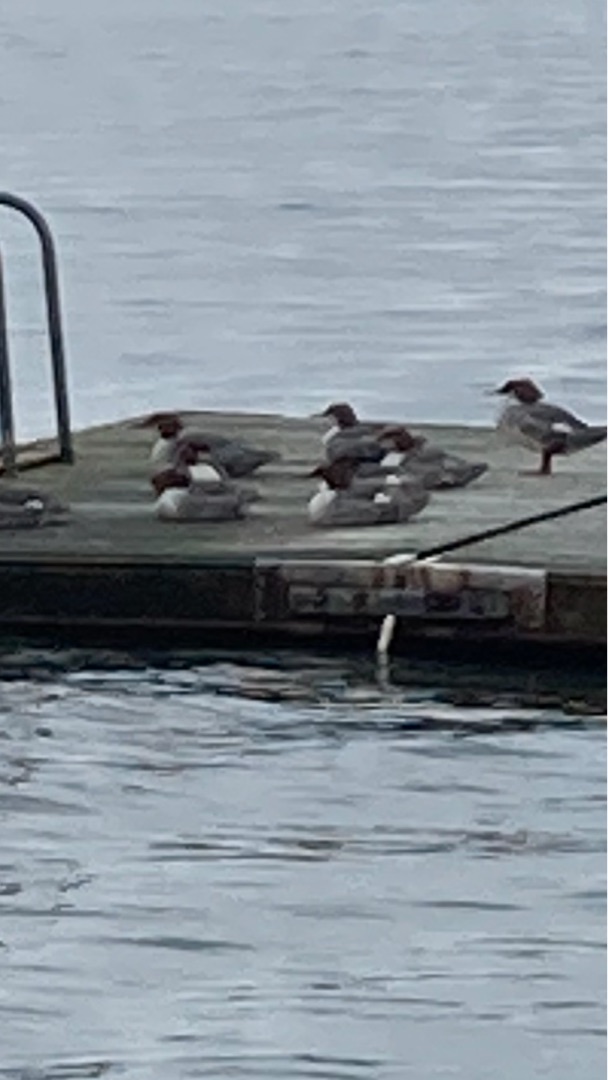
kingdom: Animalia
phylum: Chordata
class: Aves
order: Anseriformes
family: Anatidae
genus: Mergus
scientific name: Mergus merganser
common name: Stor skallesluger
